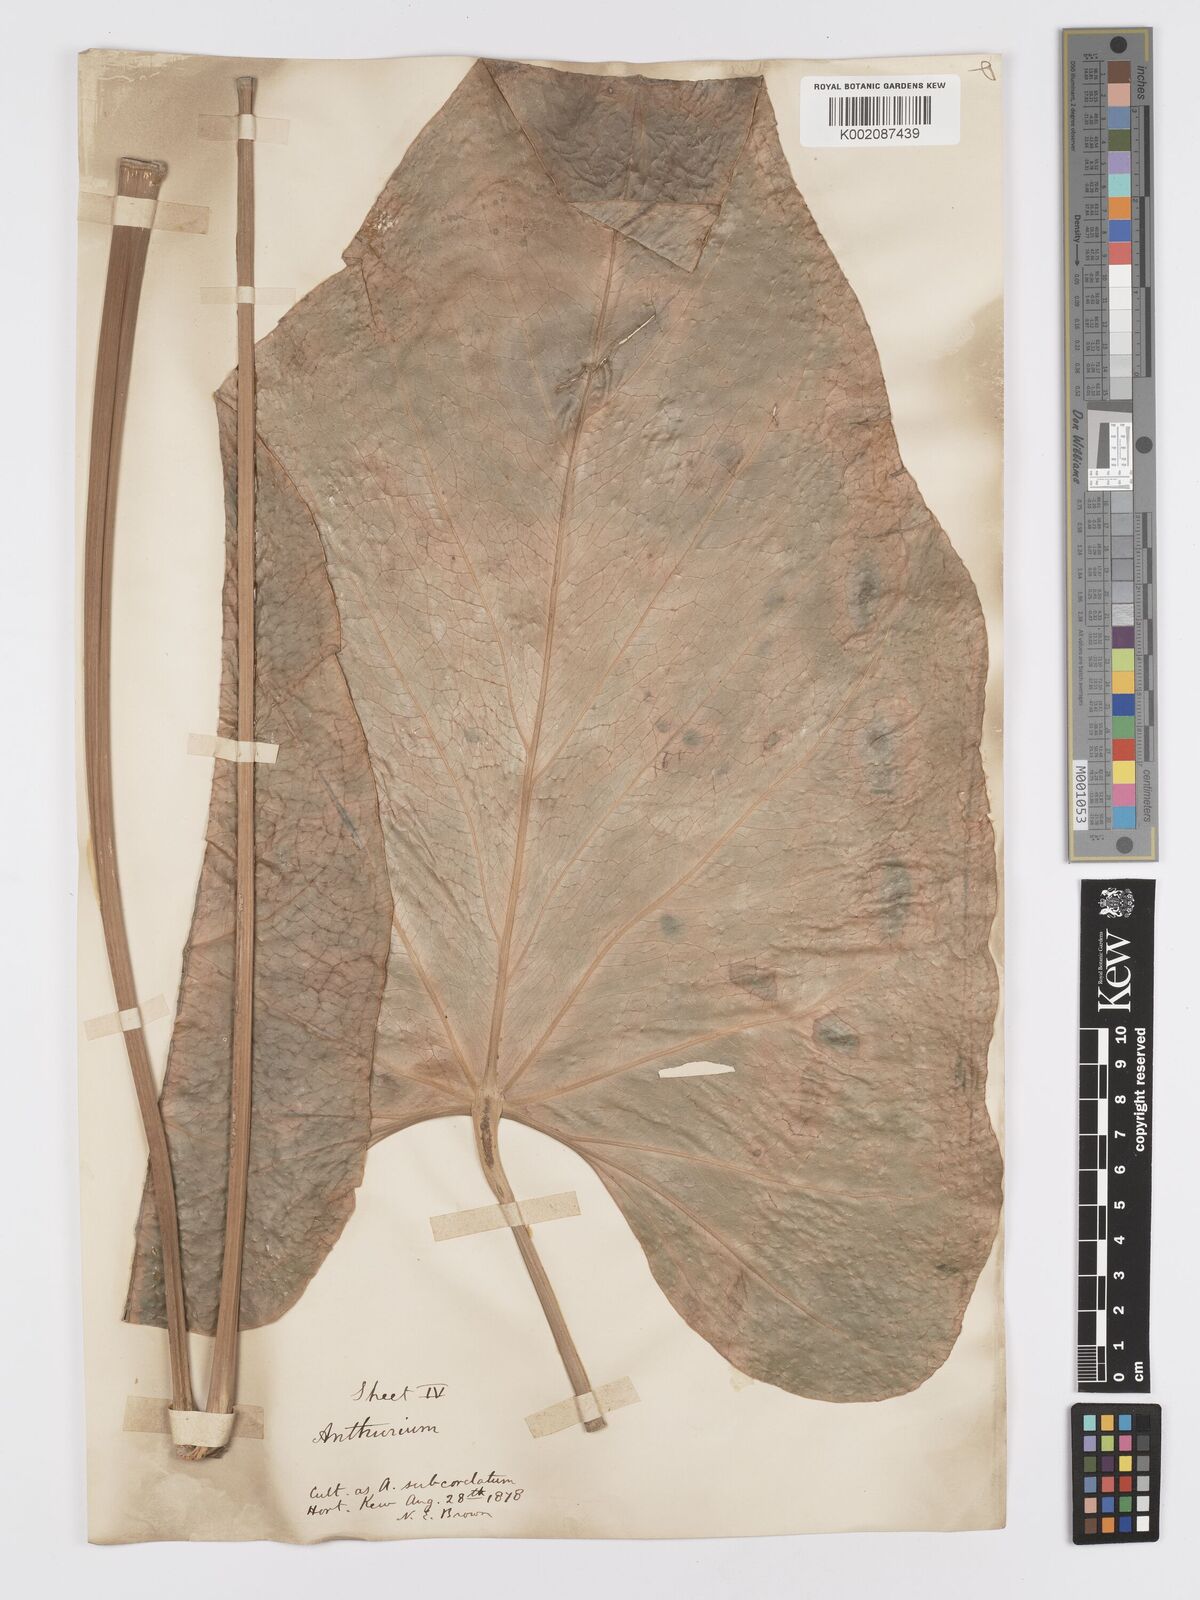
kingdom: Plantae
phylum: Tracheophyta
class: Liliopsida
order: Alismatales
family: Araceae
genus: Anthurium
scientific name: Anthurium
